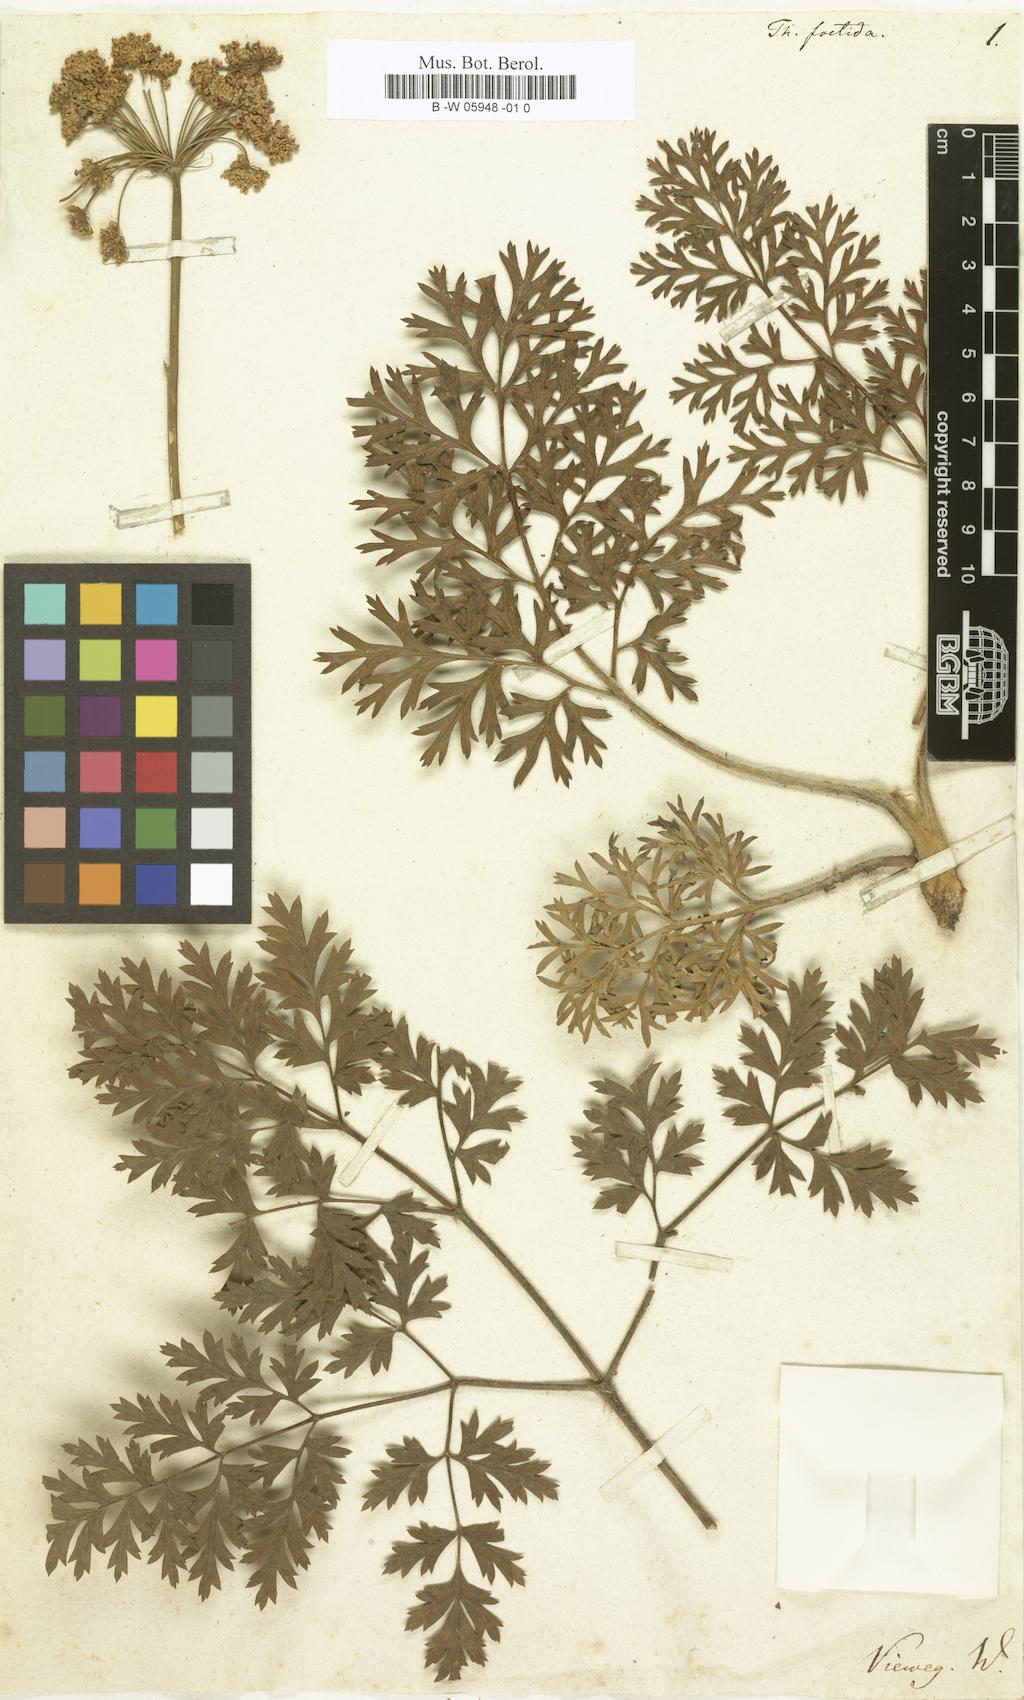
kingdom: Plantae
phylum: Tracheophyta
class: Magnoliopsida
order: Apiales
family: Apiaceae
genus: Thapsia
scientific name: Thapsia foetida
